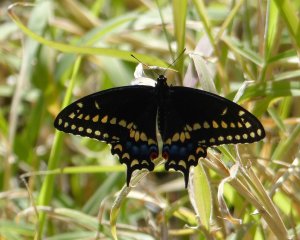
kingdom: Animalia
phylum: Arthropoda
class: Insecta
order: Lepidoptera
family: Papilionidae
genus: Papilio
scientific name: Papilio polyxenes
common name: Black Swallowtail
